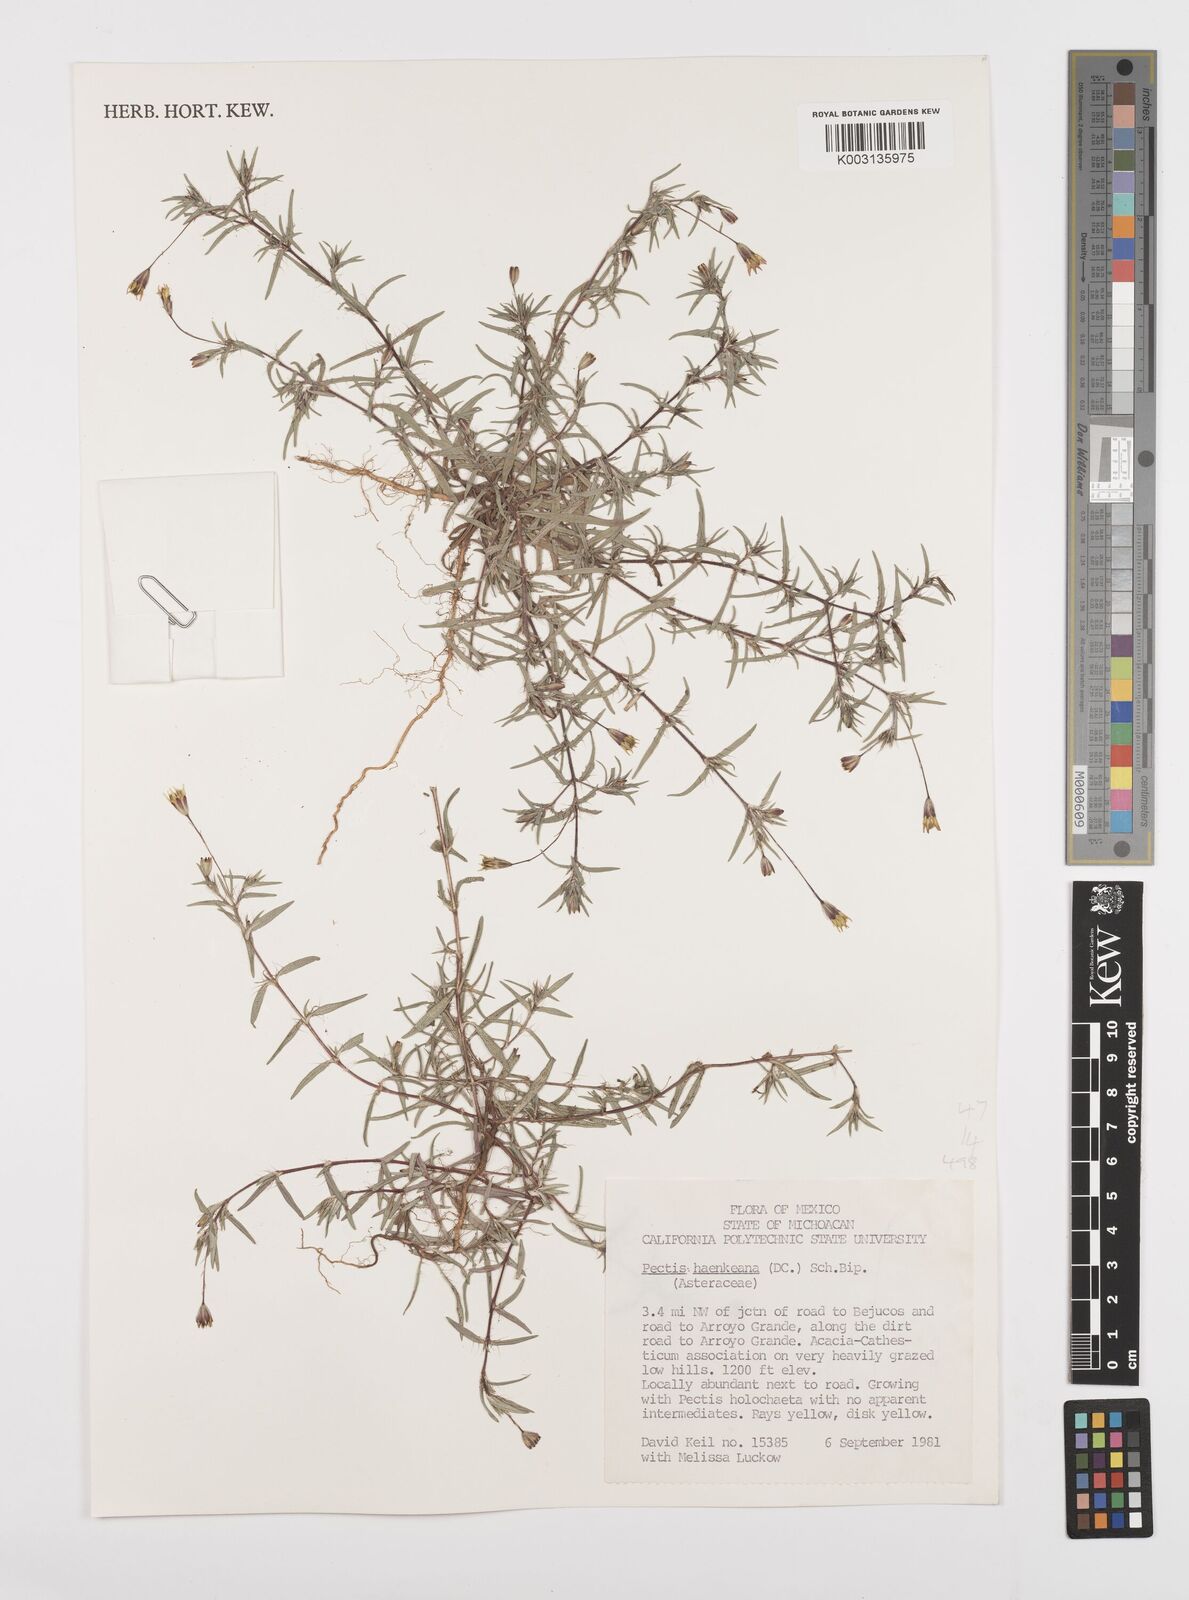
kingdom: Plantae
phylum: Tracheophyta
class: Magnoliopsida
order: Asterales
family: Asteraceae
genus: Pectis
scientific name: Pectis haenkeana
